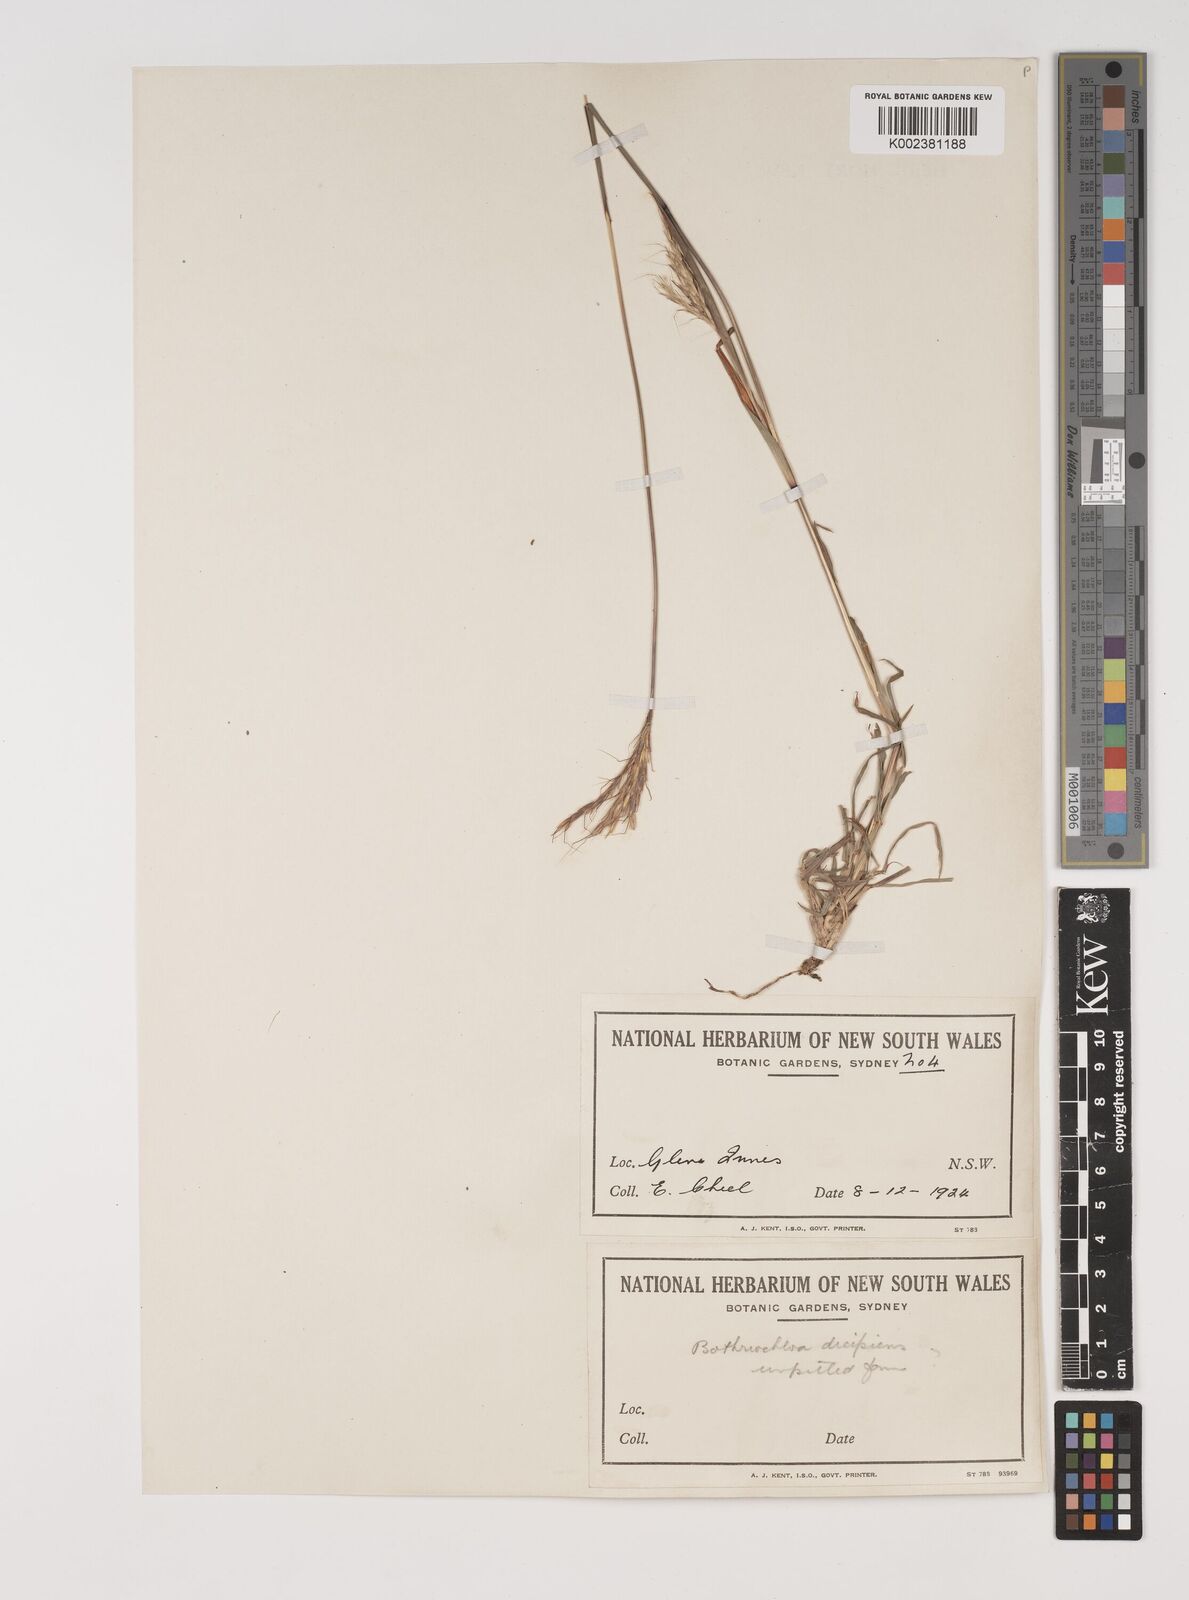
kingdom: Plantae
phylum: Tracheophyta
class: Liliopsida
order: Poales
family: Poaceae
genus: Bothriochloa
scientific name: Bothriochloa macra
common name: Pitted beard grass
